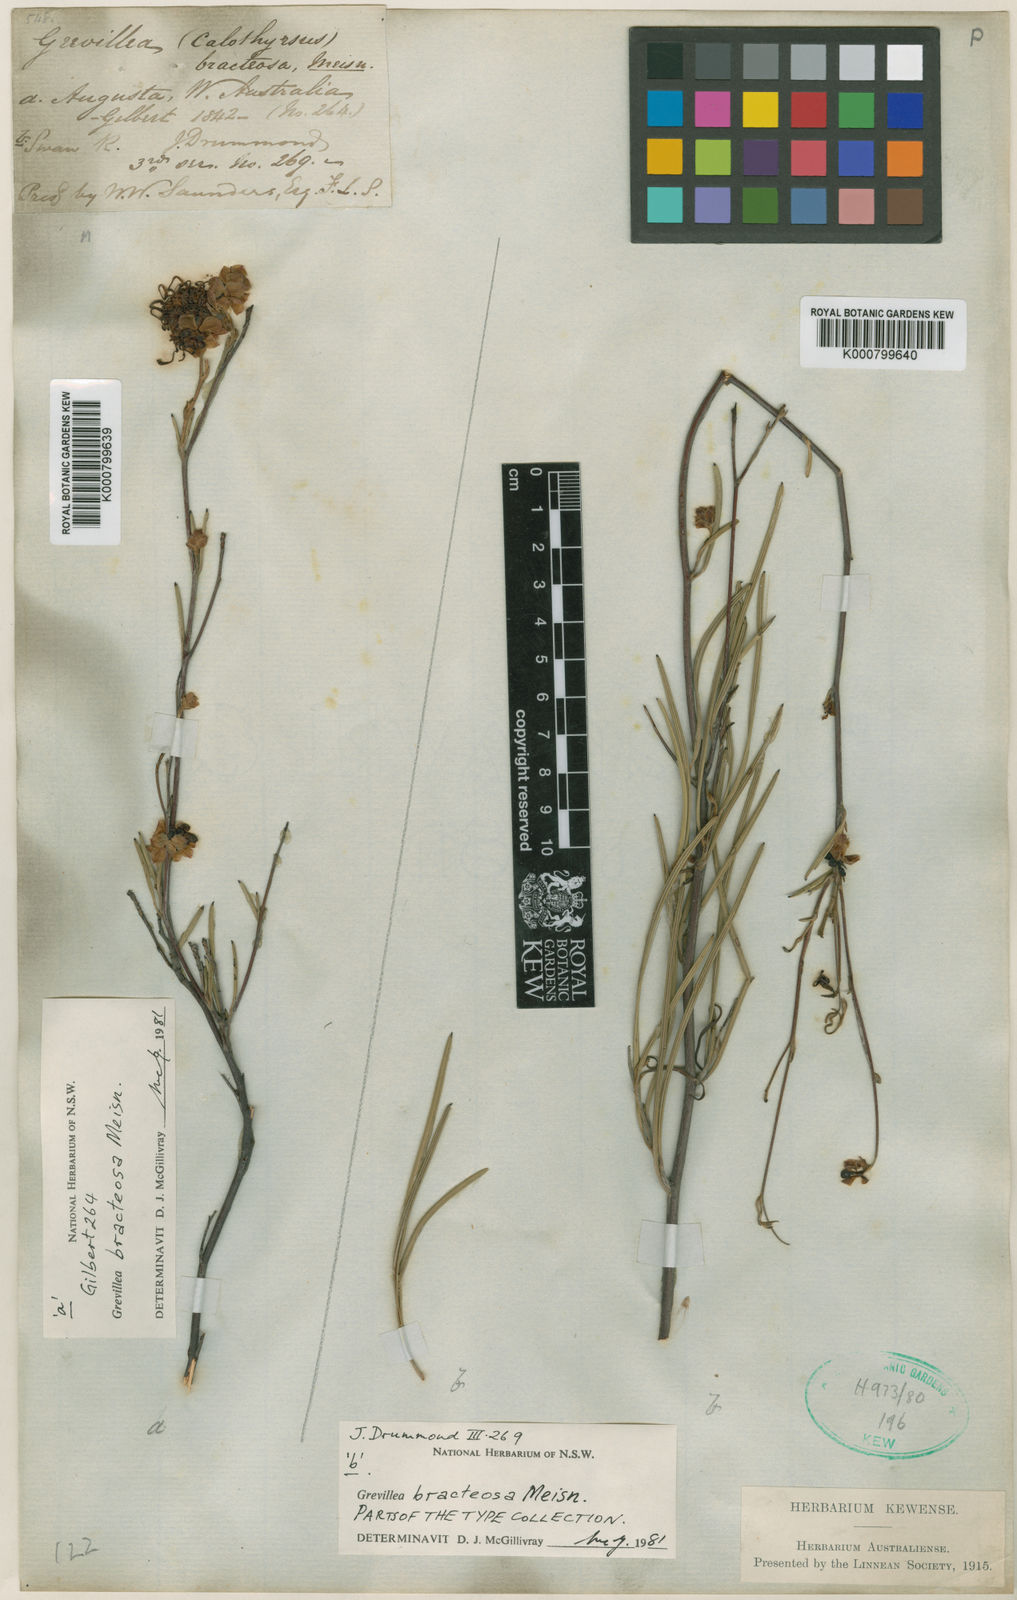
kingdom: Plantae
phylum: Tracheophyta
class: Magnoliopsida
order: Proteales
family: Proteaceae
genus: Grevillea
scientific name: Grevillea bracteosa
